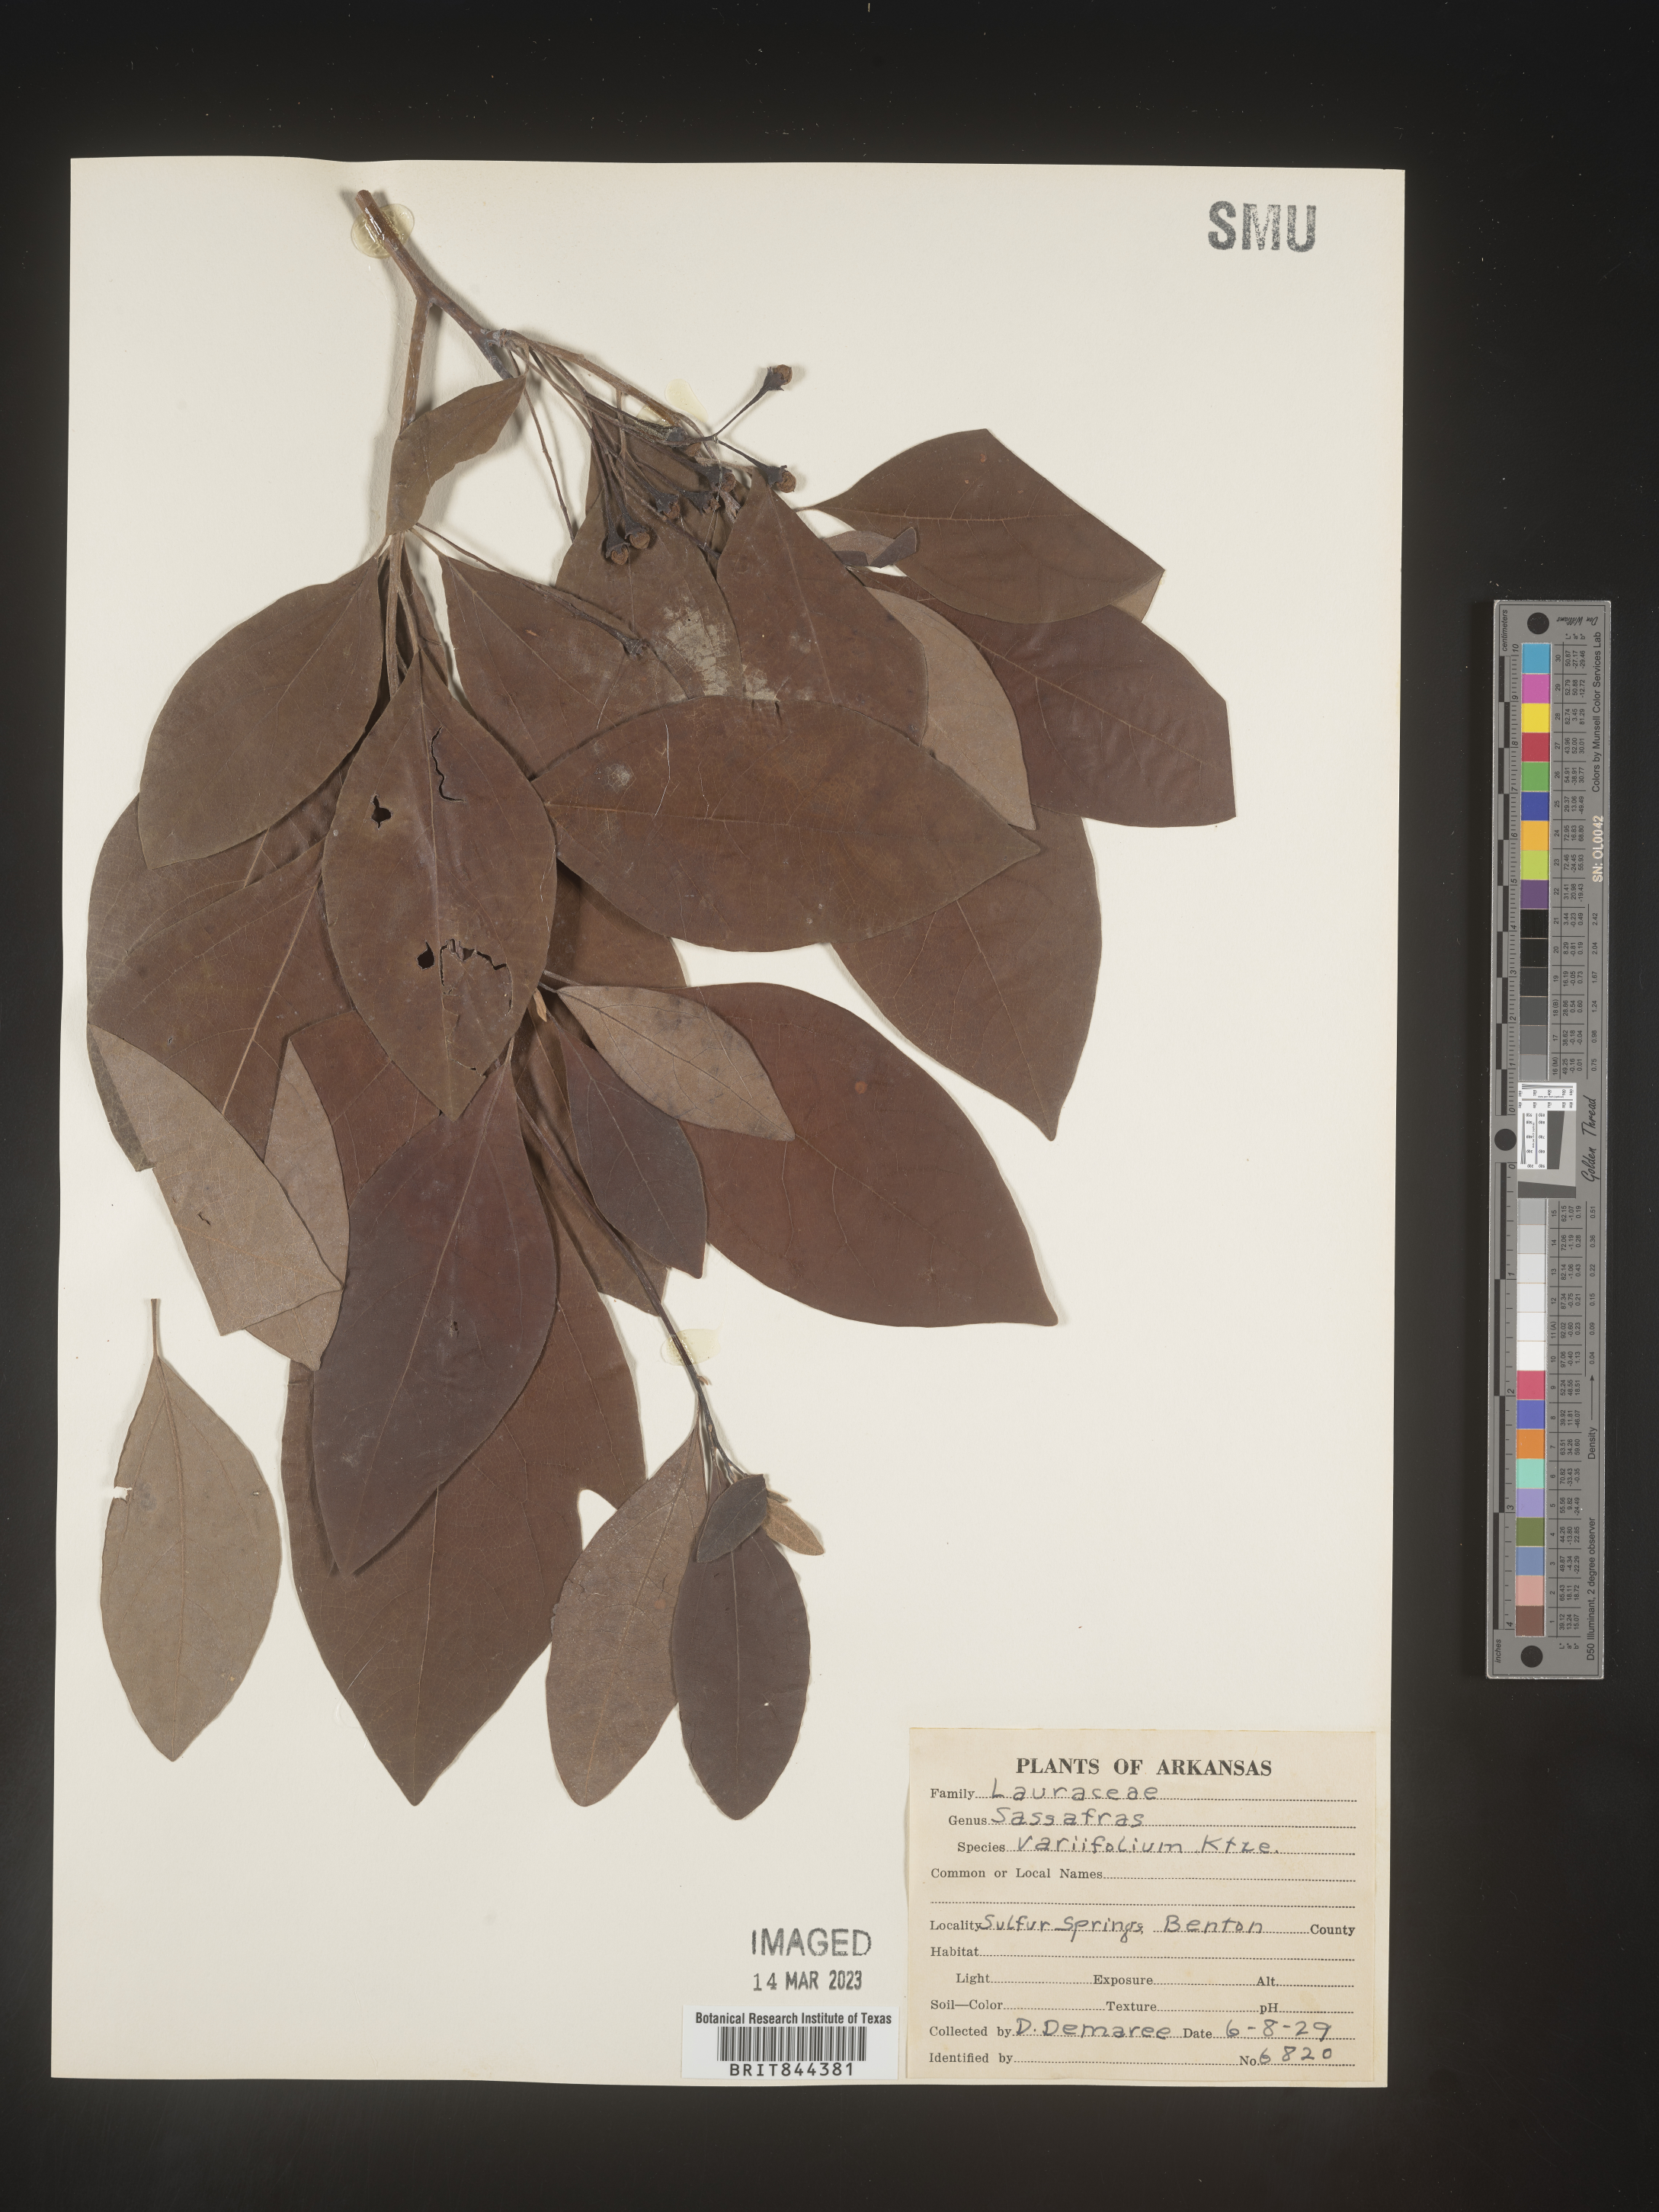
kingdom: Plantae
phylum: Tracheophyta
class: Magnoliopsida
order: Laurales
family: Lauraceae
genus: Sassafras
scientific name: Sassafras
